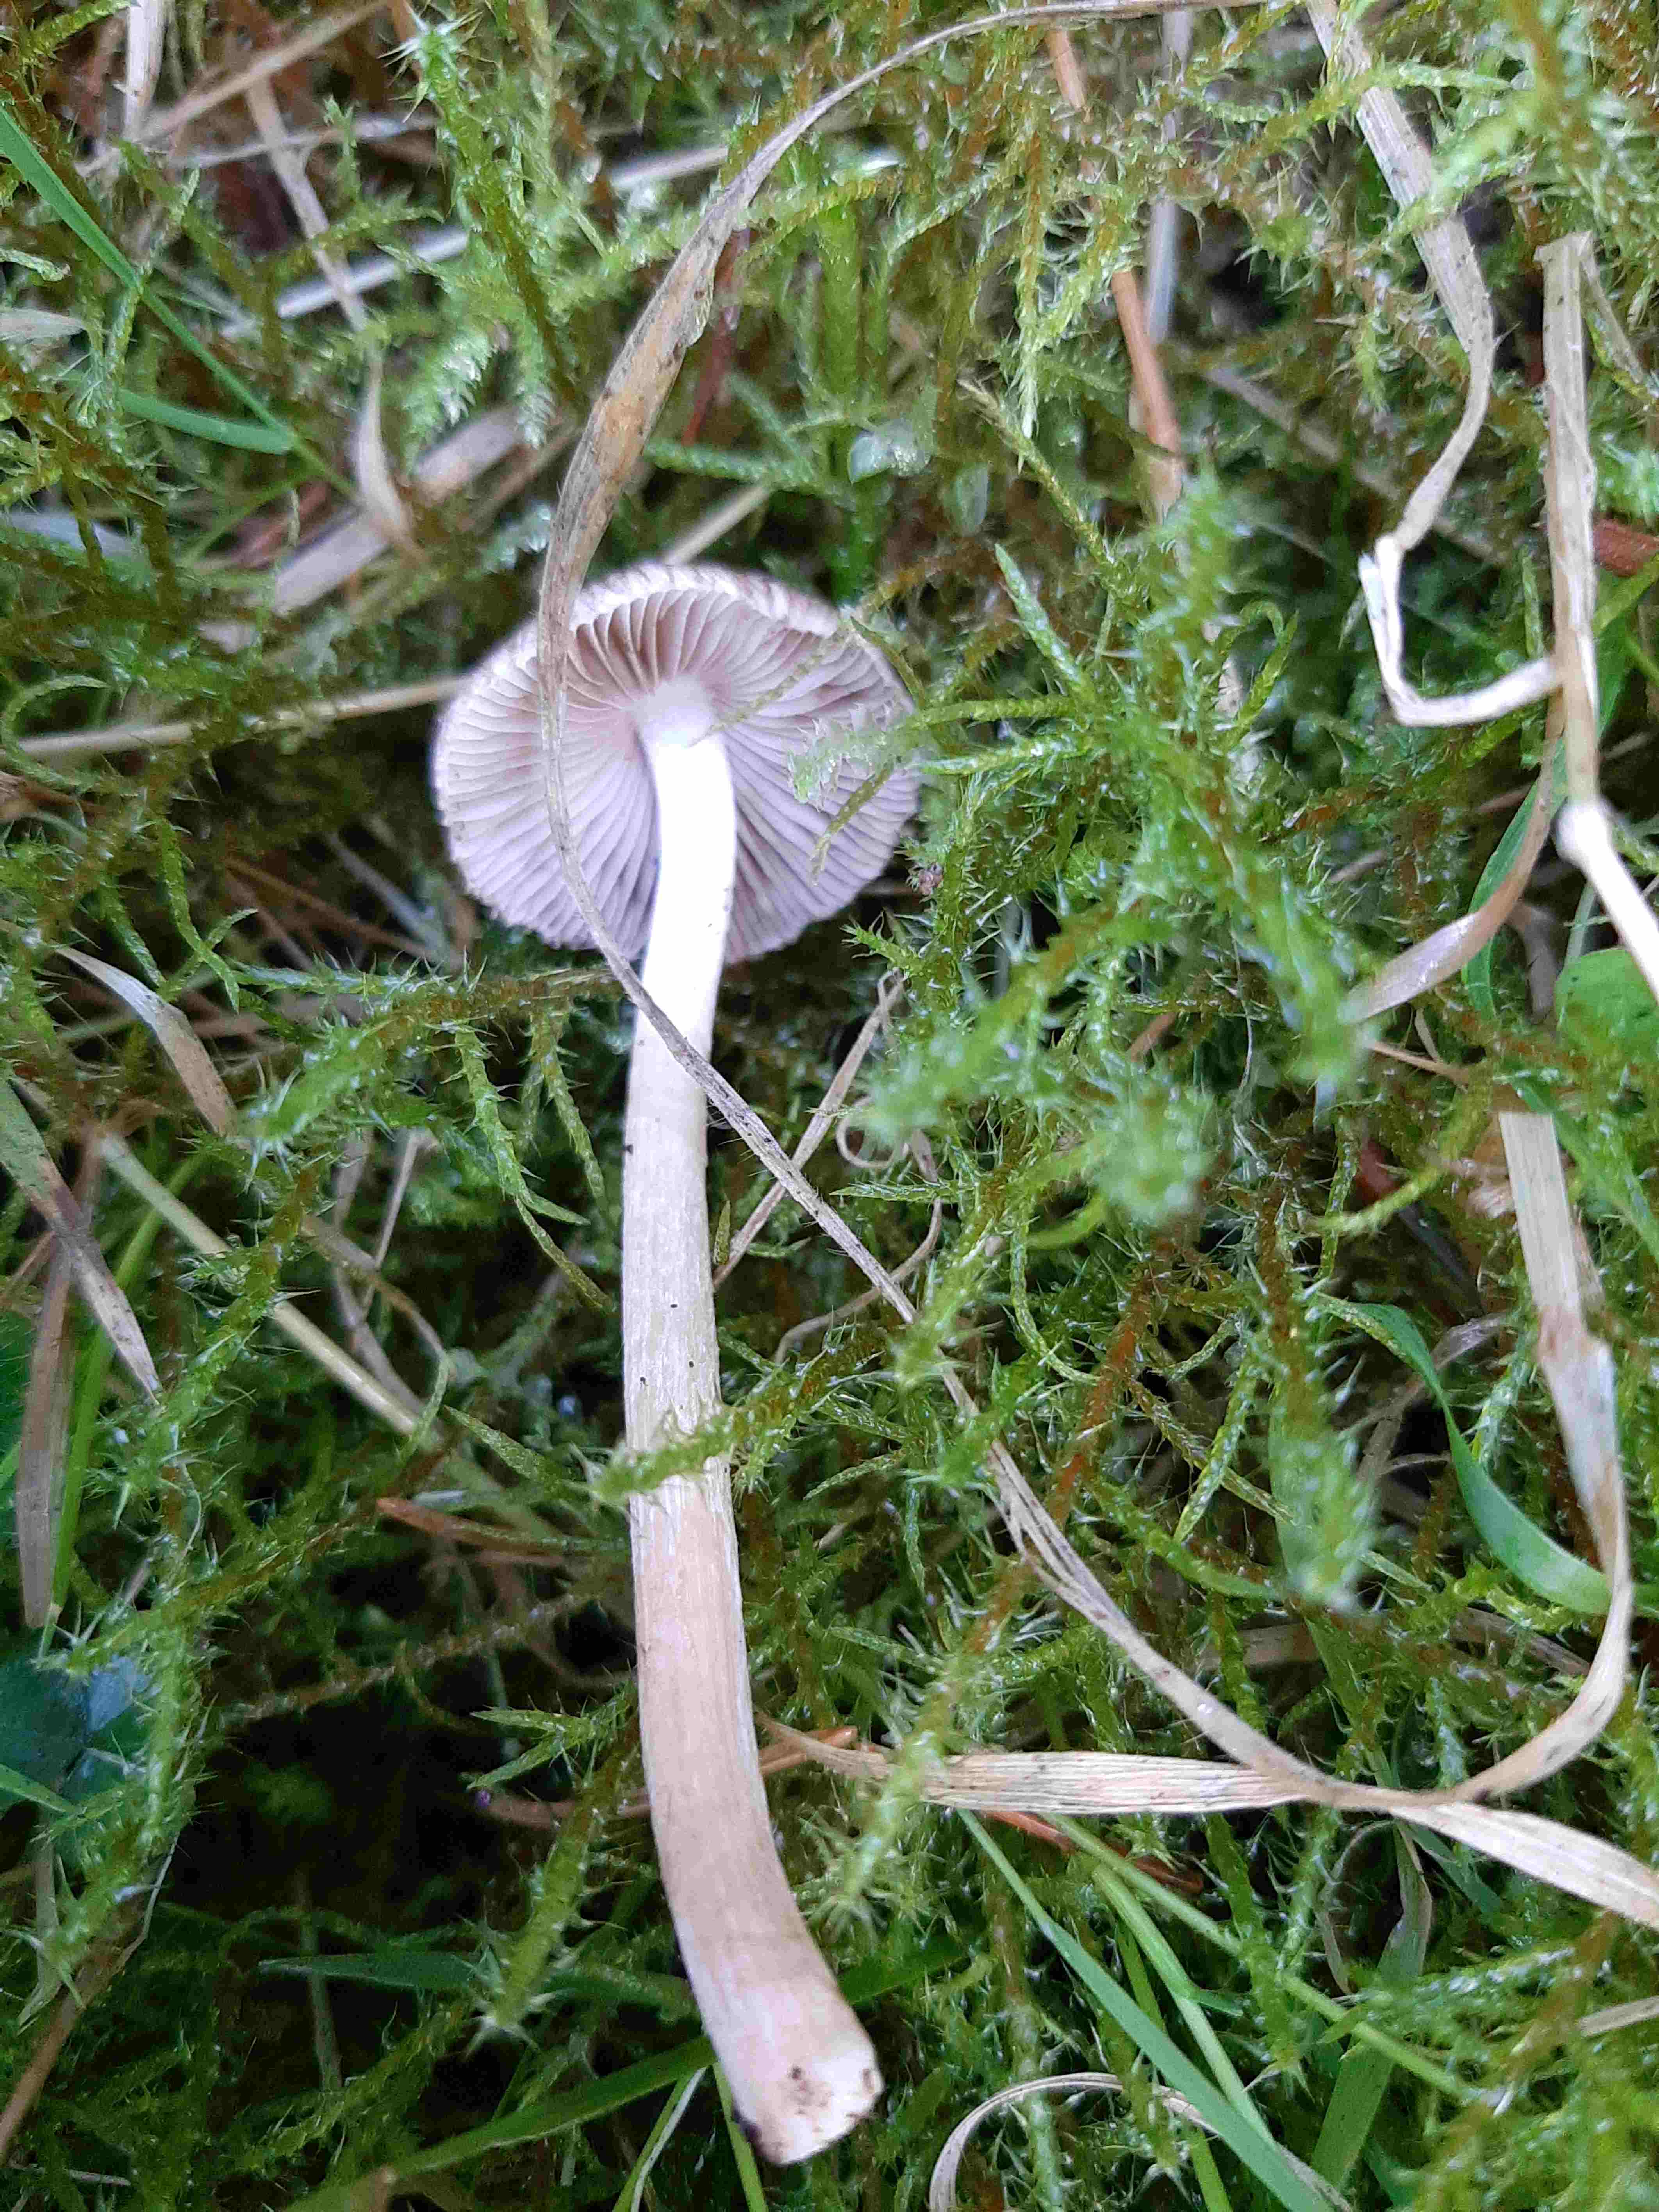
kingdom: Fungi
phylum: Basidiomycota
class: Agaricomycetes
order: Agaricales
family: Inocybaceae
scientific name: Inocybaceae
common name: trævlhatfamilien
